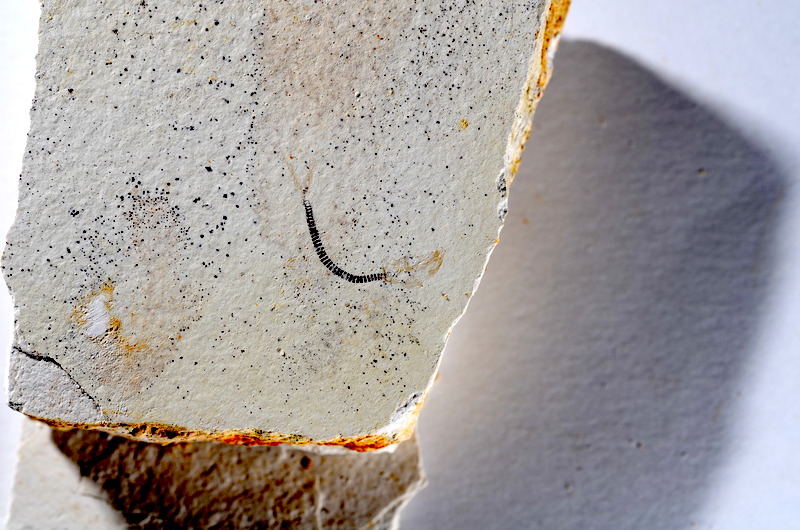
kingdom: Animalia
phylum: Chordata
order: Salmoniformes
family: Orthogonikleithridae
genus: Orthogonikleithrus
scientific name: Orthogonikleithrus hoelli
